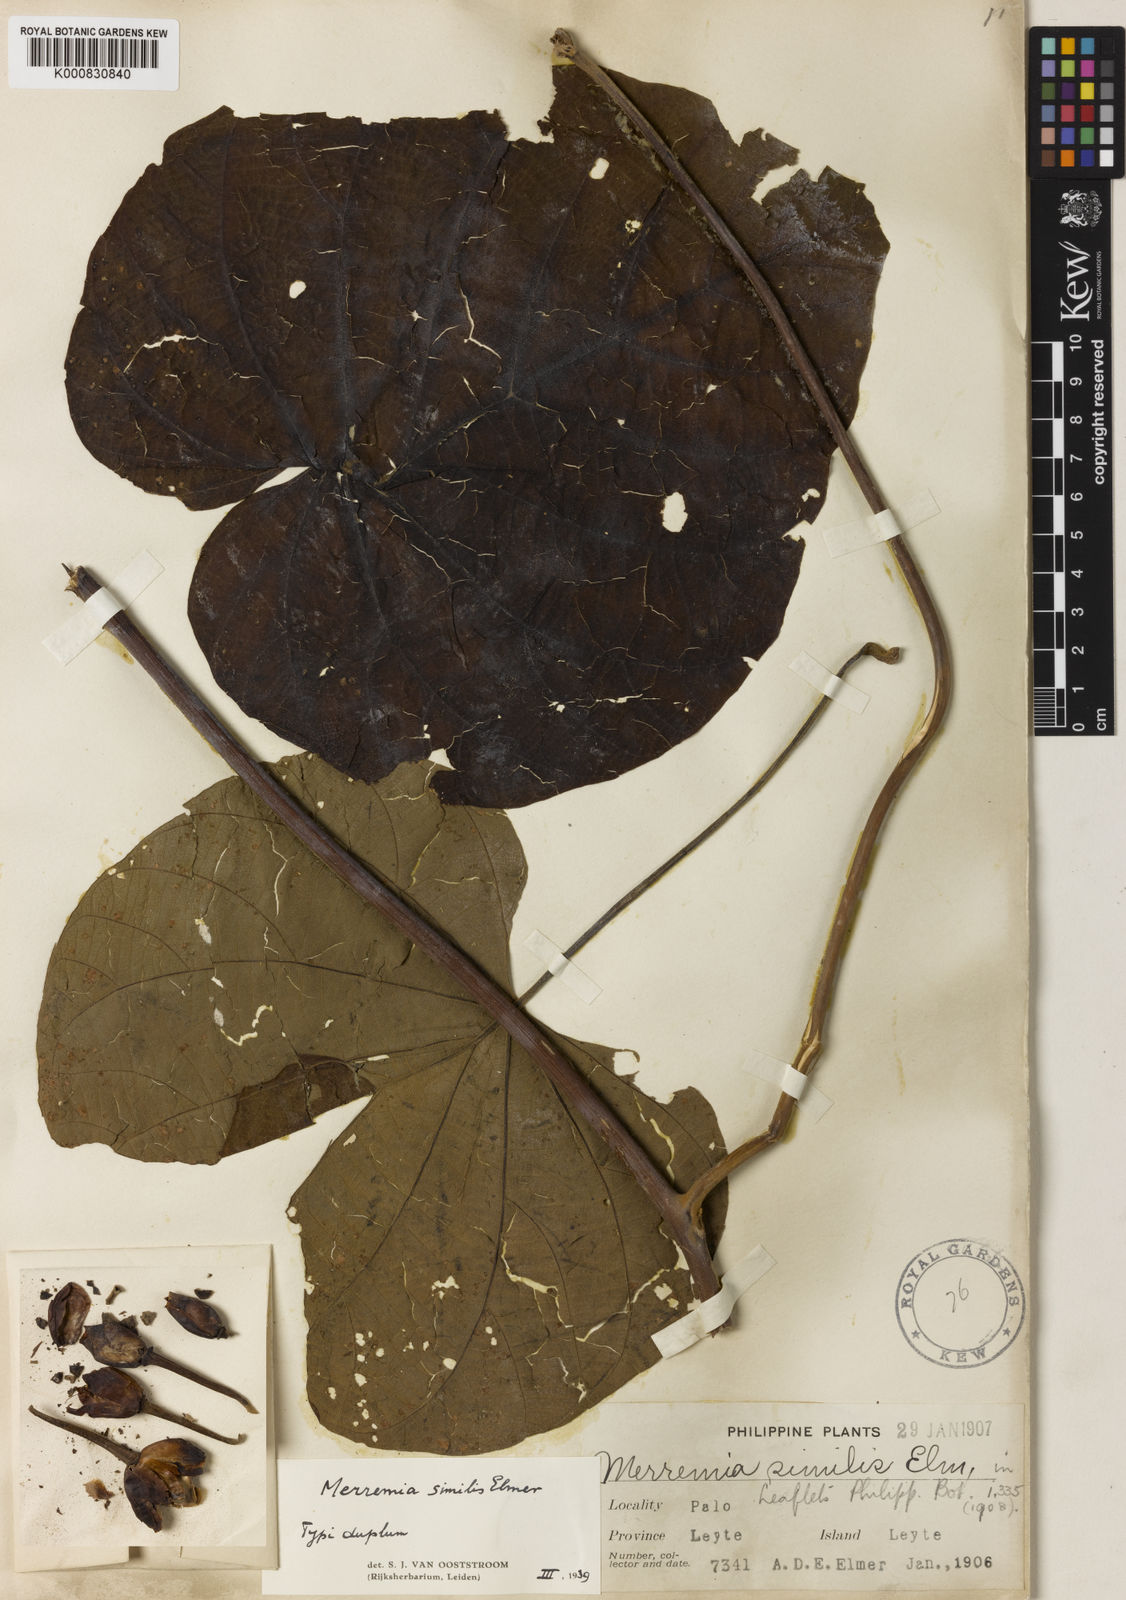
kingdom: Plantae
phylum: Tracheophyta
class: Magnoliopsida
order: Solanales
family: Convolvulaceae
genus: Decalobanthus
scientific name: Decalobanthus distillatorius
